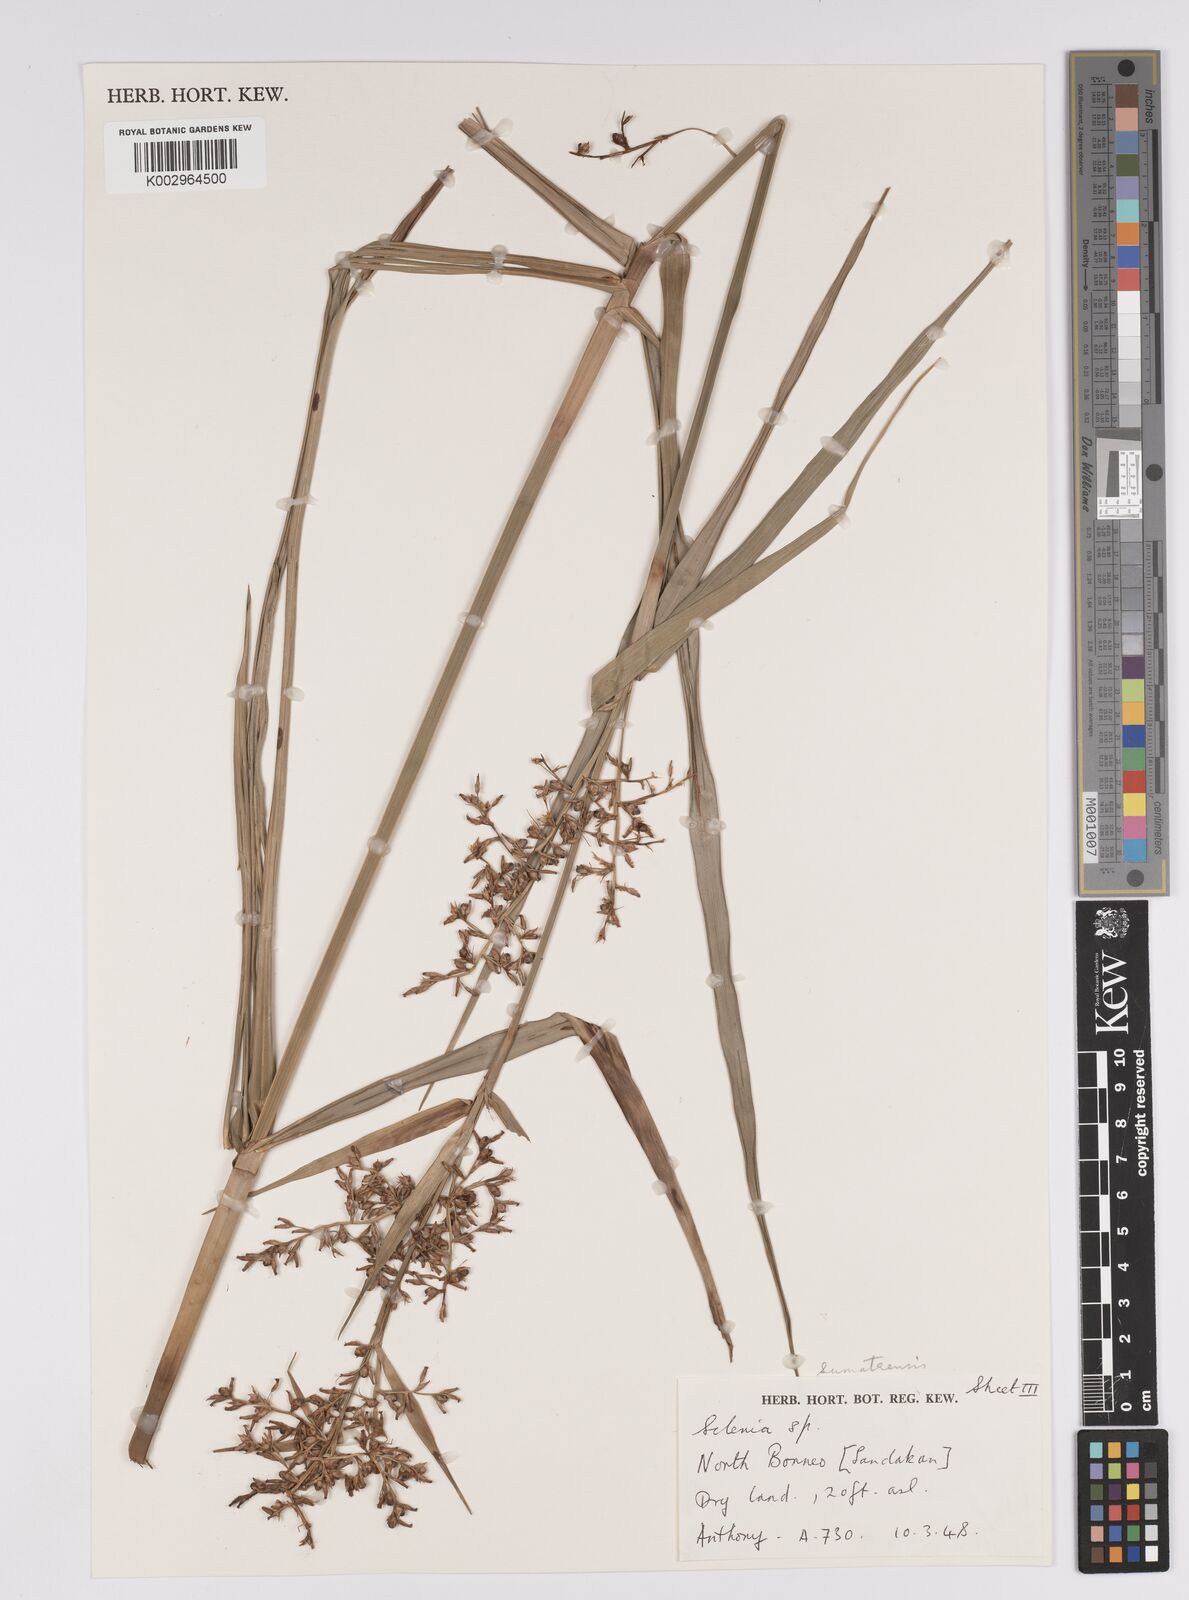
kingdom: Plantae
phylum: Tracheophyta
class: Liliopsida
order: Poales
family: Cyperaceae
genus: Scleria
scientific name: Scleria sumatrensis
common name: Sumatran scleria
